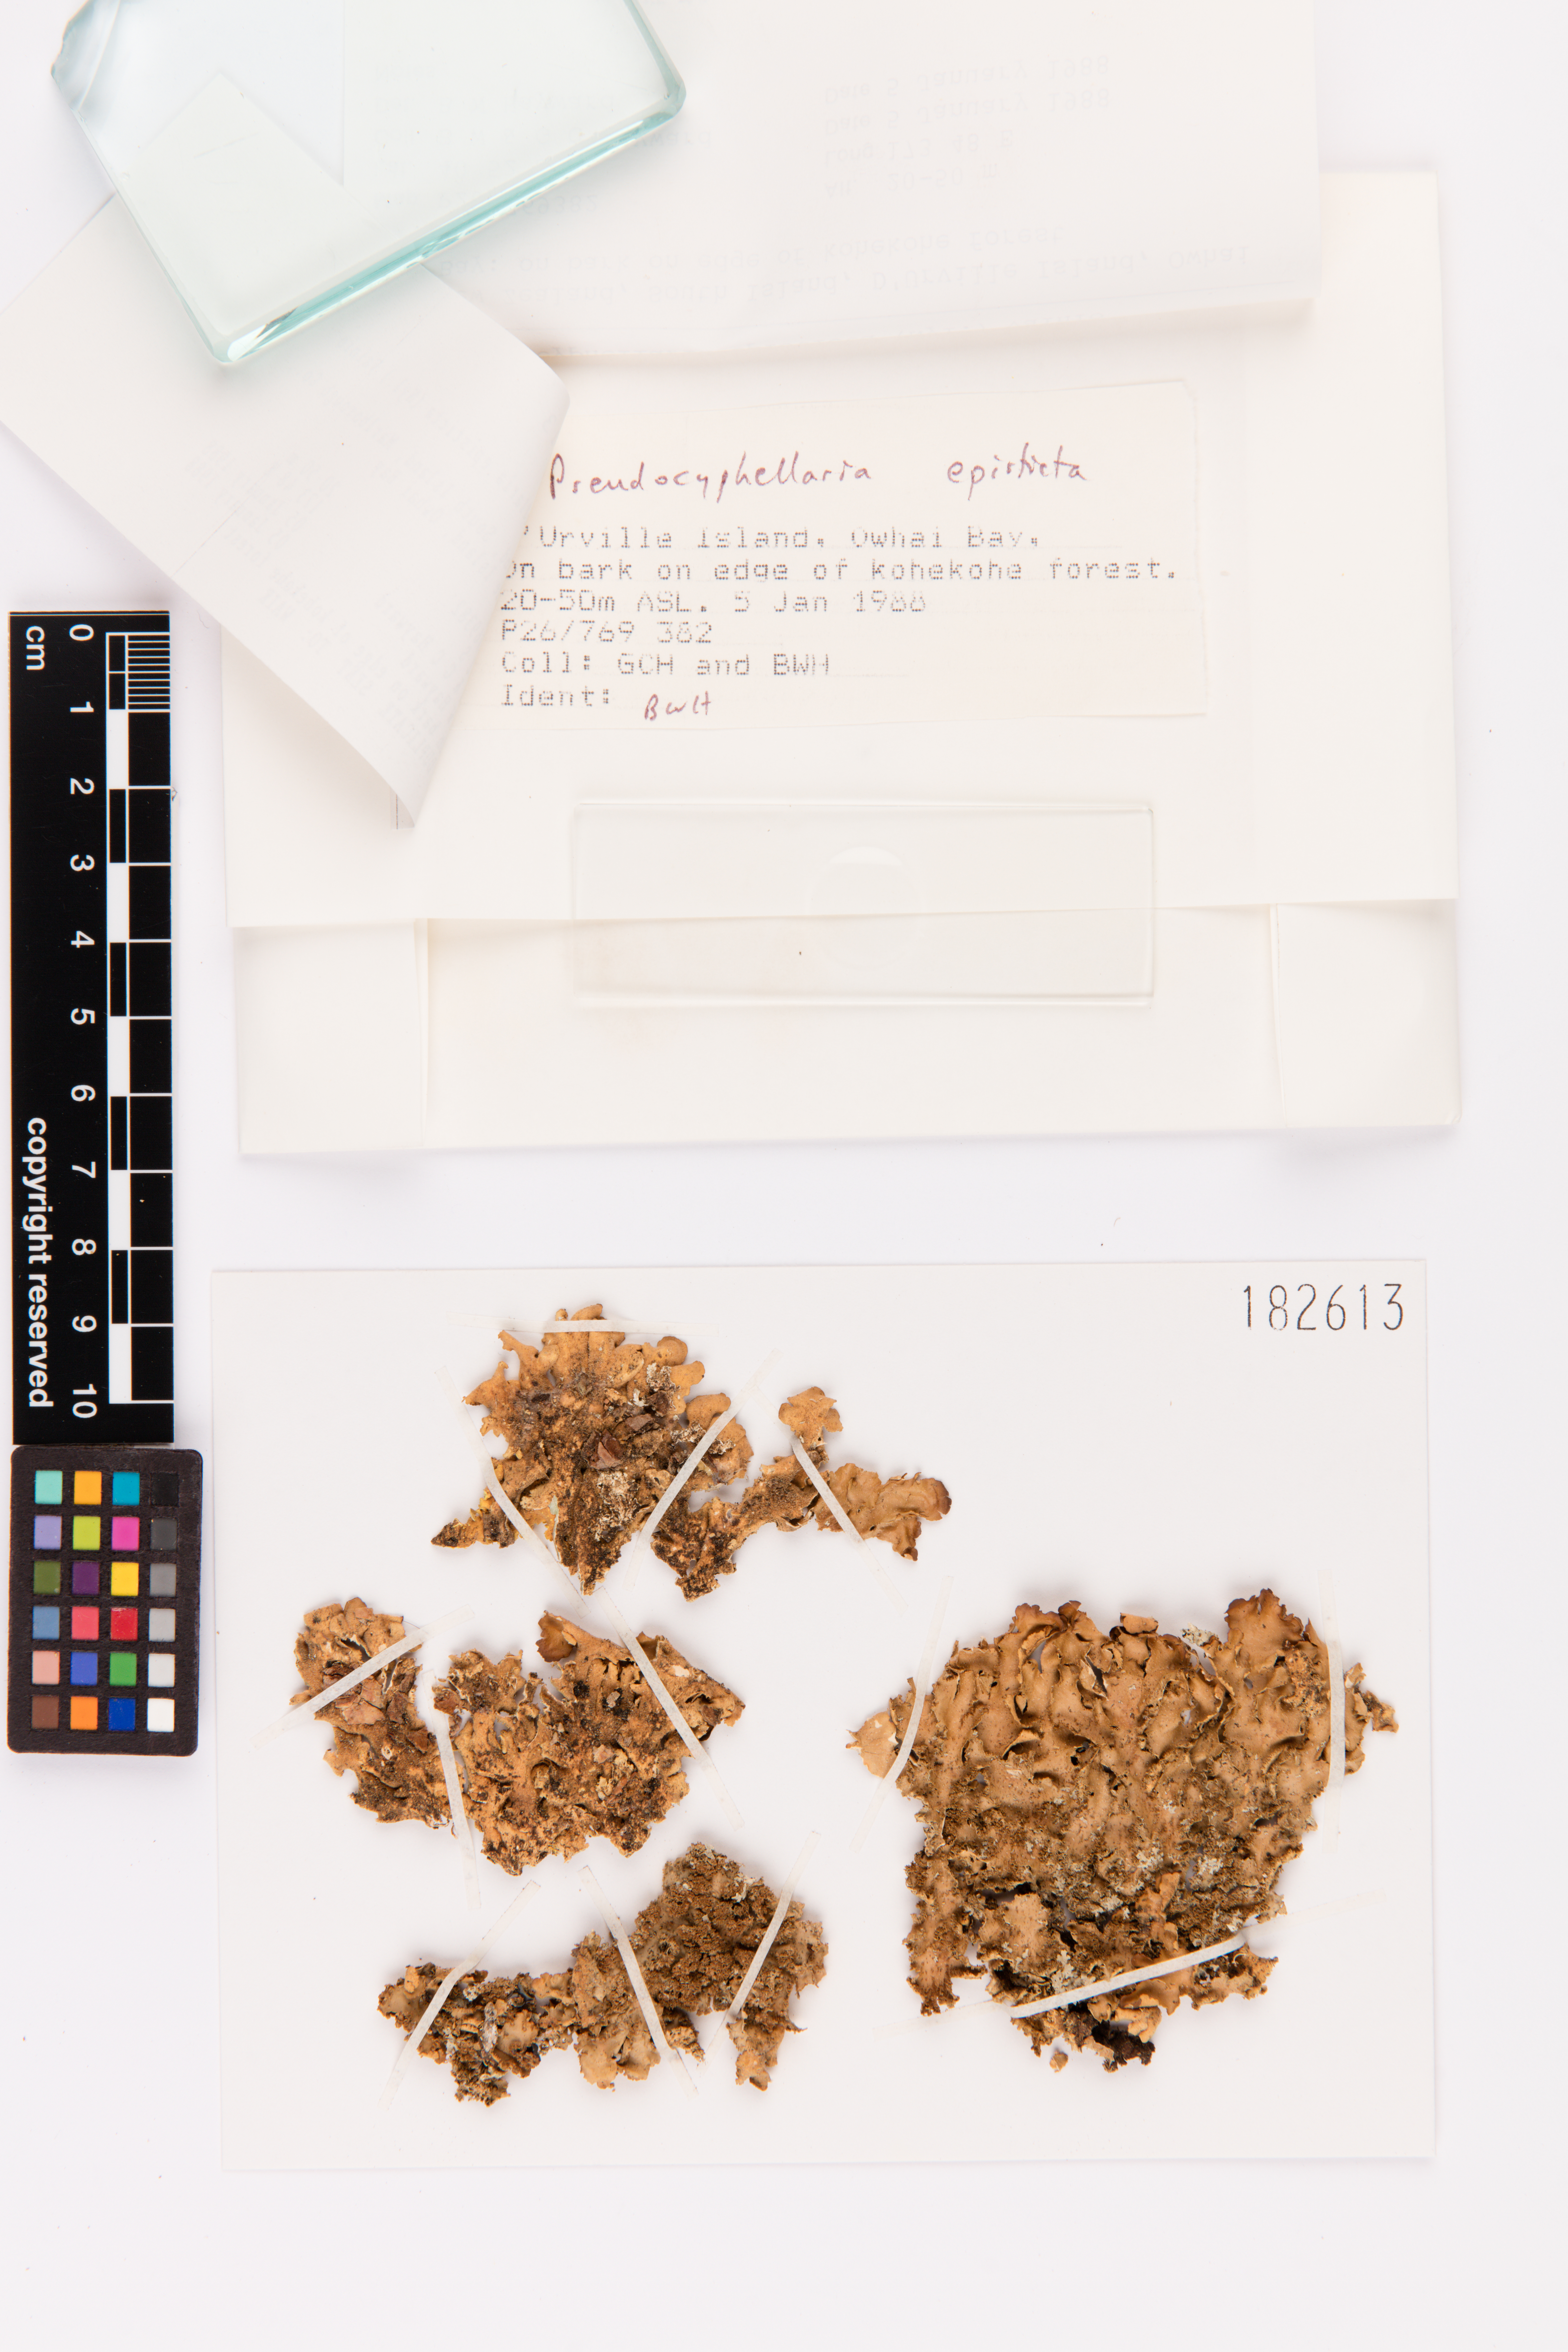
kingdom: Fungi
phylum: Ascomycota
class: Lecanoromycetes
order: Peltigerales
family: Lobariaceae
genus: Pseudocyphellaria
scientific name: Pseudocyphellaria episticta
